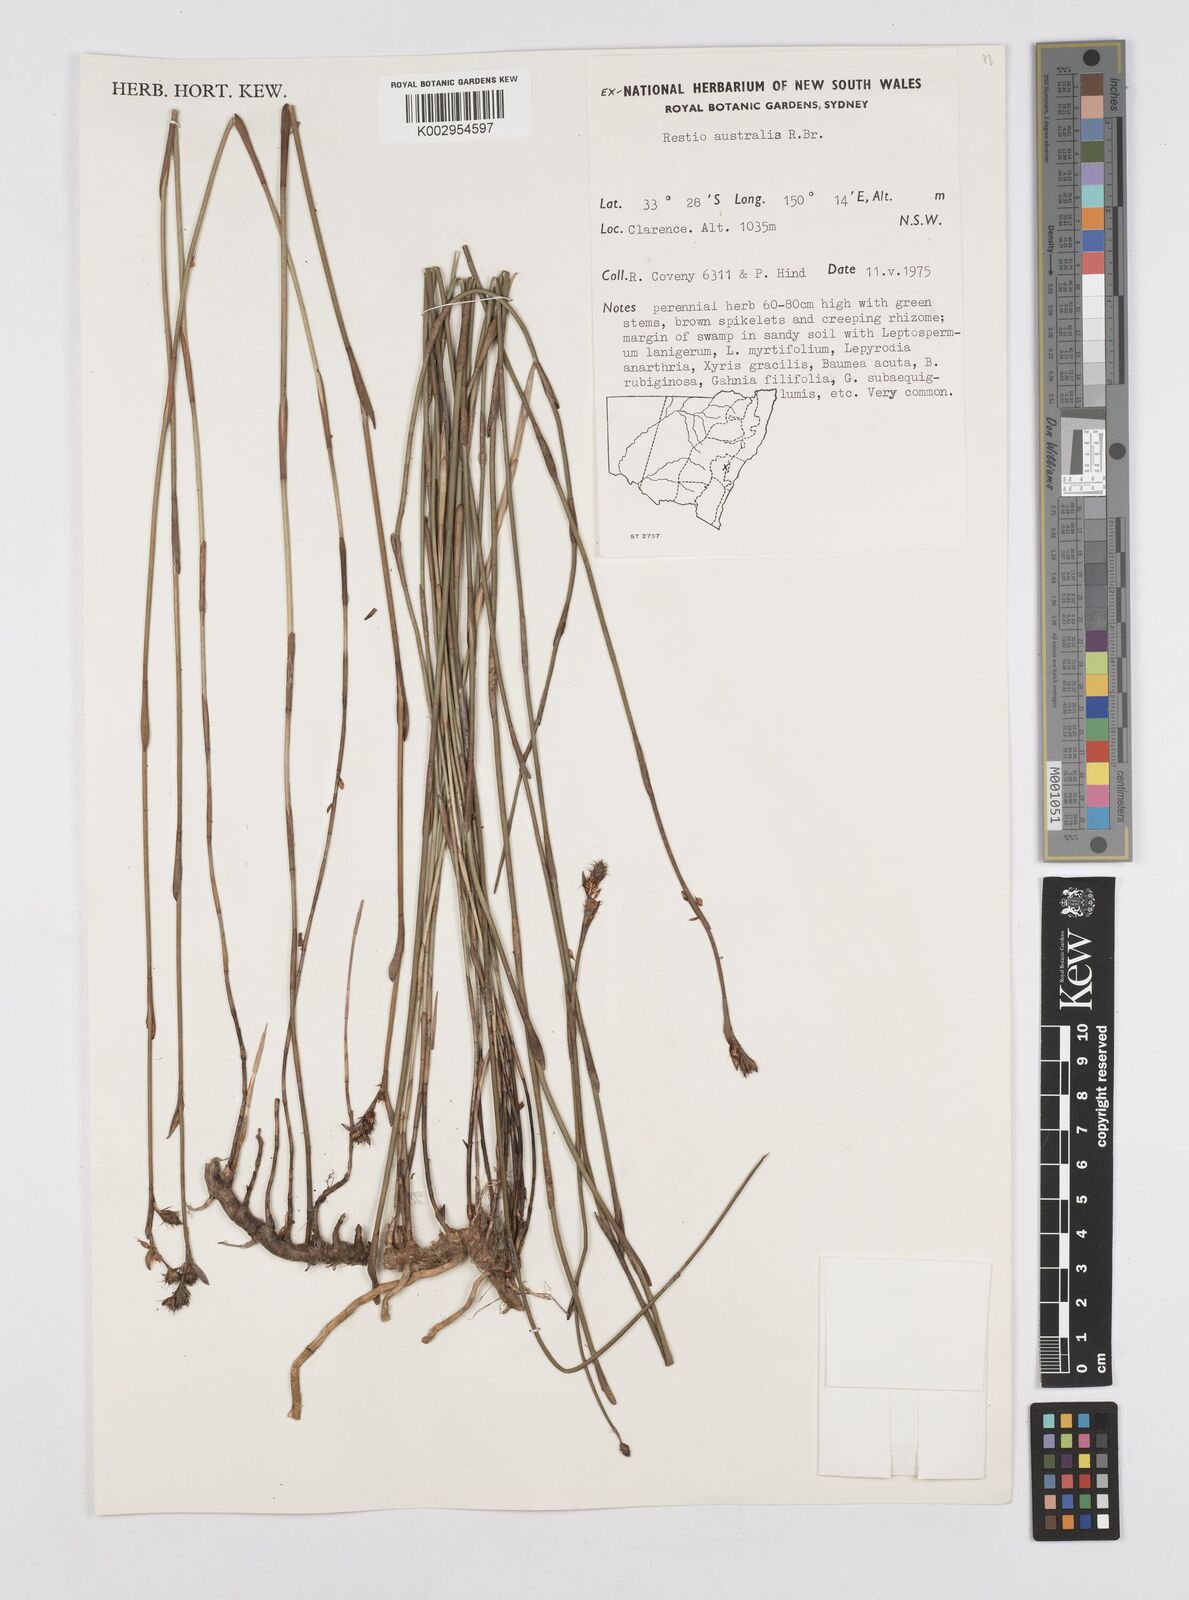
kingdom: Plantae
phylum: Tracheophyta
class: Liliopsida
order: Poales
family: Restionaceae
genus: Baloskion
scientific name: Baloskion australe
